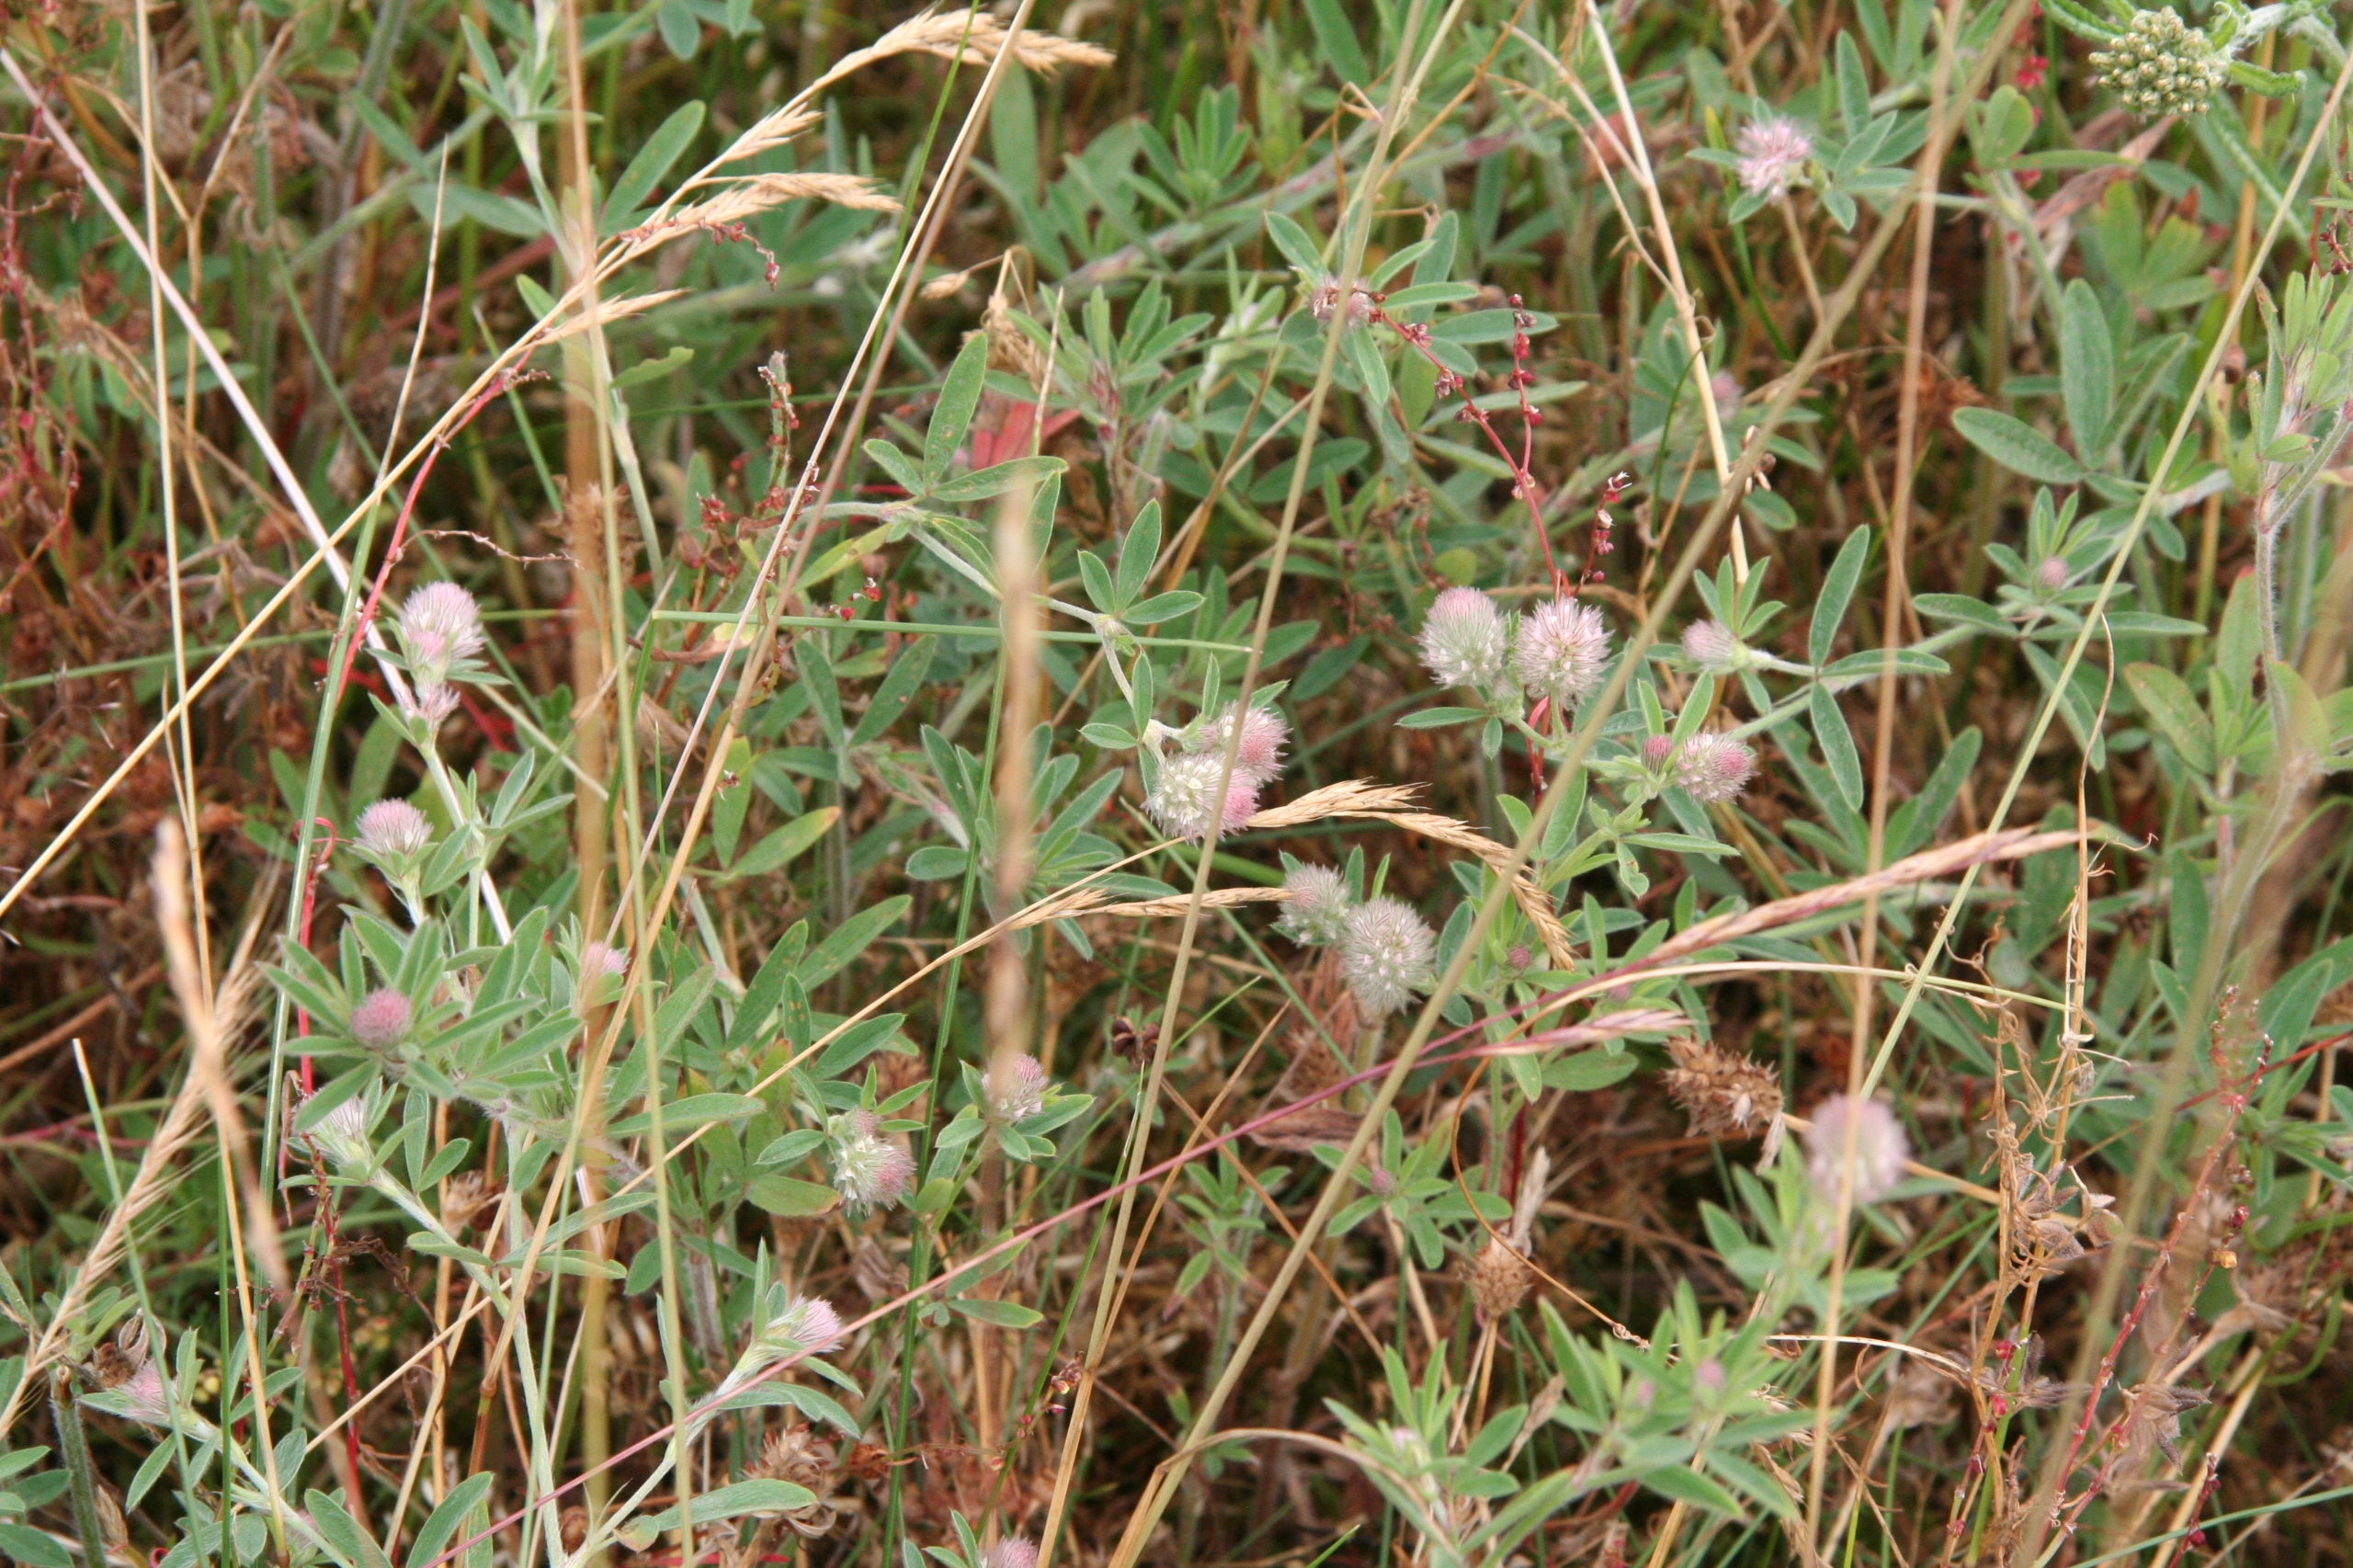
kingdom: Plantae
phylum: Tracheophyta
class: Magnoliopsida
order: Fabales
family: Fabaceae
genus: Trifolium
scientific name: Trifolium arvense
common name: Hare-kløver
